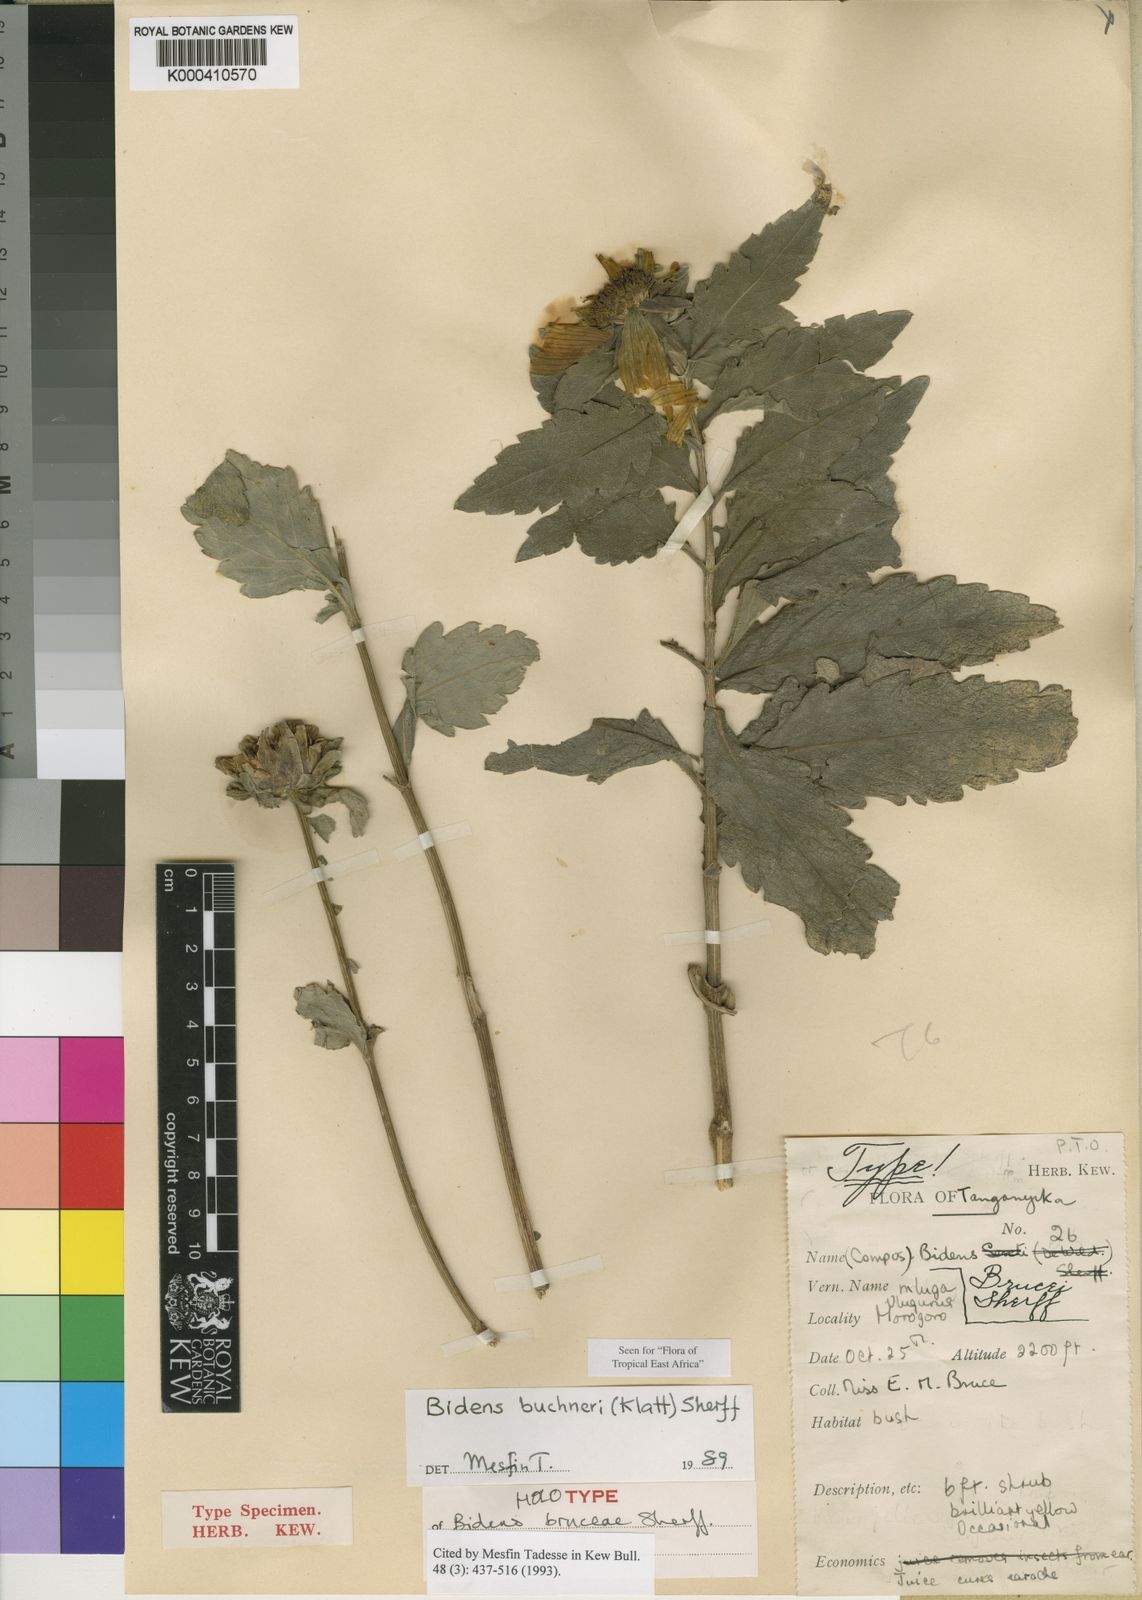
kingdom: Plantae
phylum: Tracheophyta
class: Magnoliopsida
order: Asterales
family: Asteraceae
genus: Bidens
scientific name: Bidens buchneri
